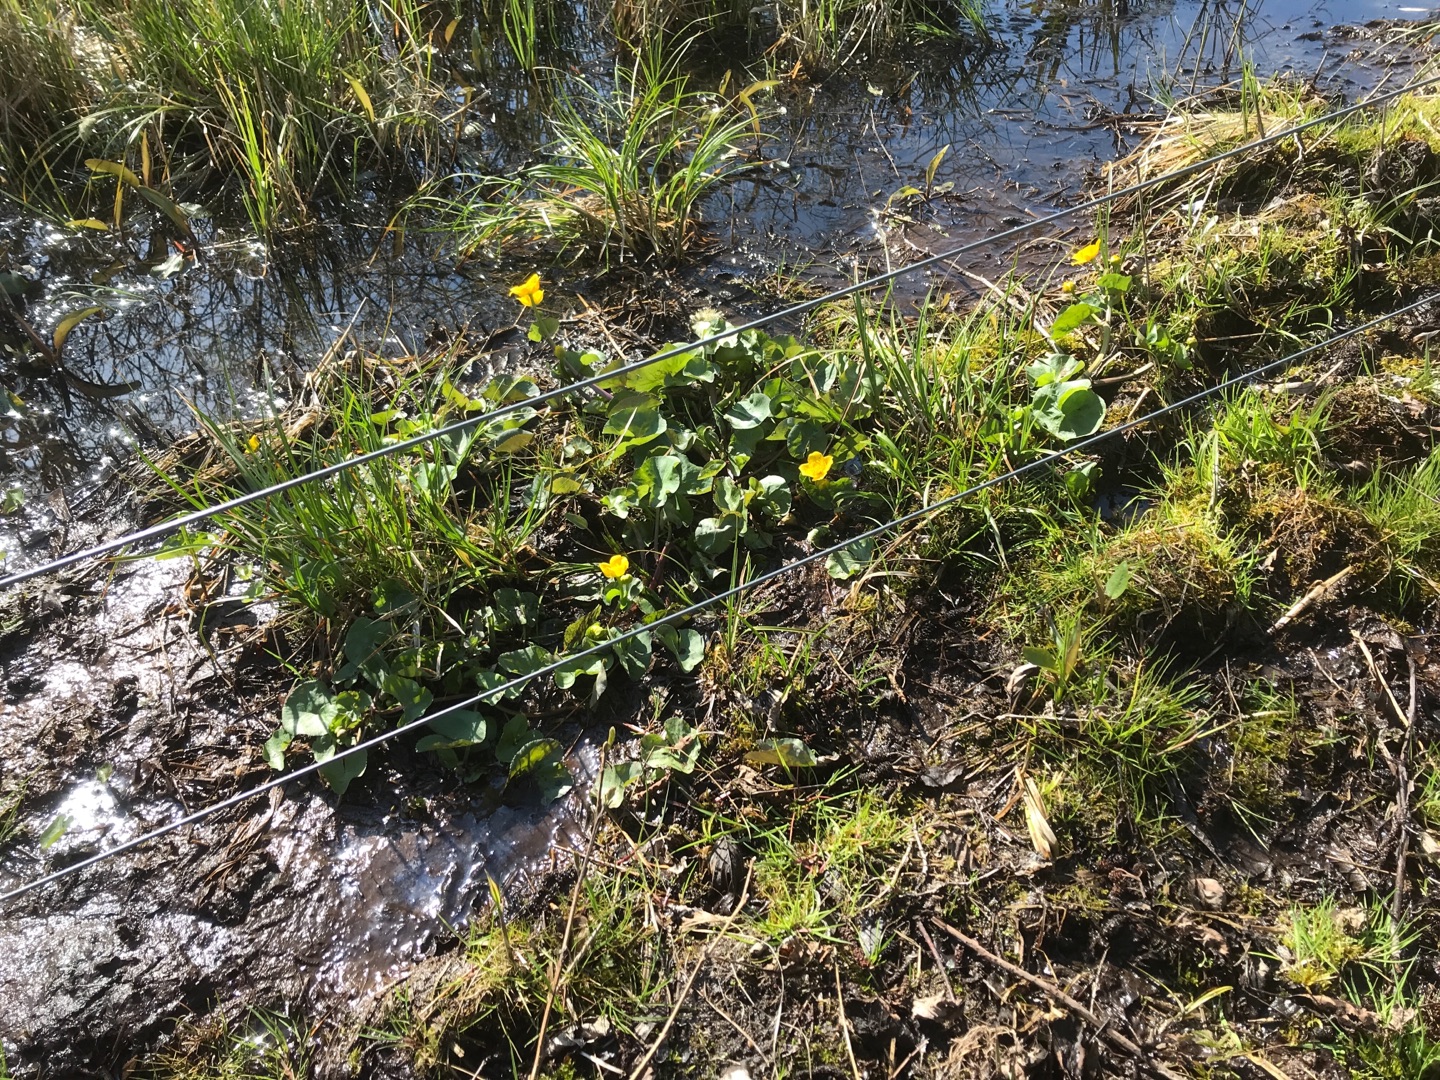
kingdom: Plantae
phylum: Tracheophyta
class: Magnoliopsida
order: Ranunculales
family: Ranunculaceae
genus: Caltha
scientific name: Caltha palustris
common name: Eng-kabbeleje
